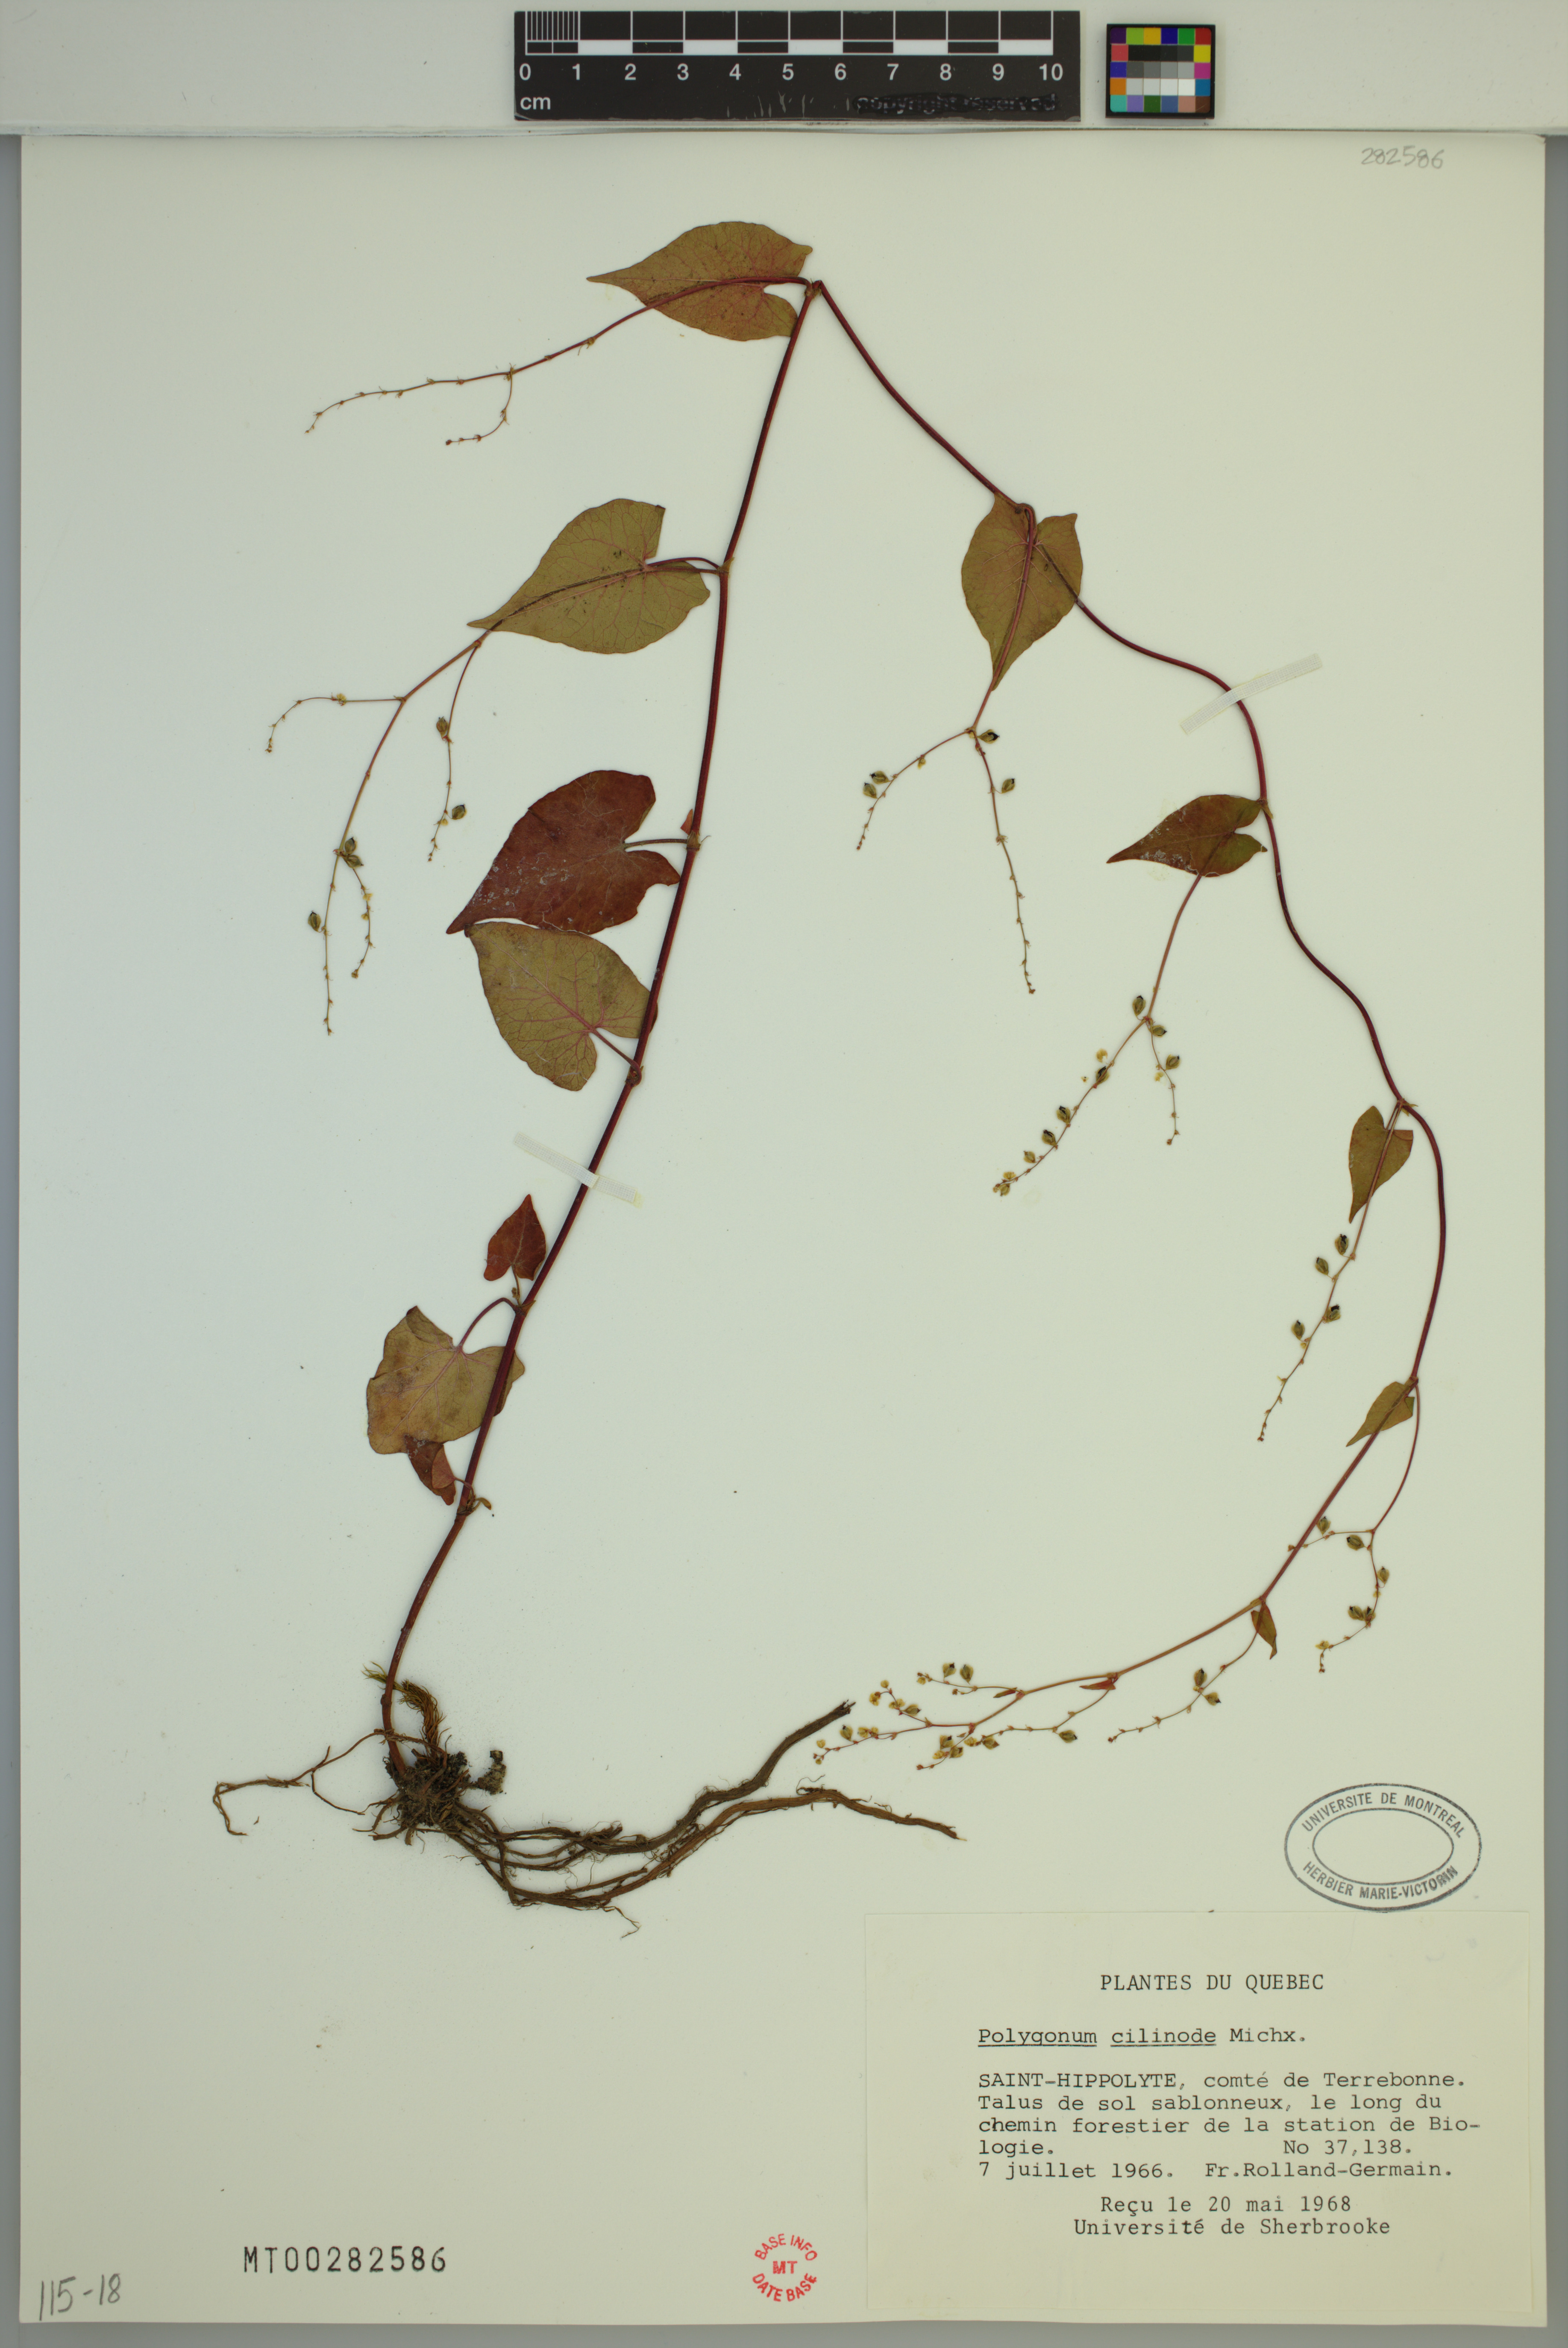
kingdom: Plantae
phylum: Tracheophyta
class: Magnoliopsida
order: Caryophyllales
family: Polygonaceae
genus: Parogonum
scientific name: Parogonum ciliinode
